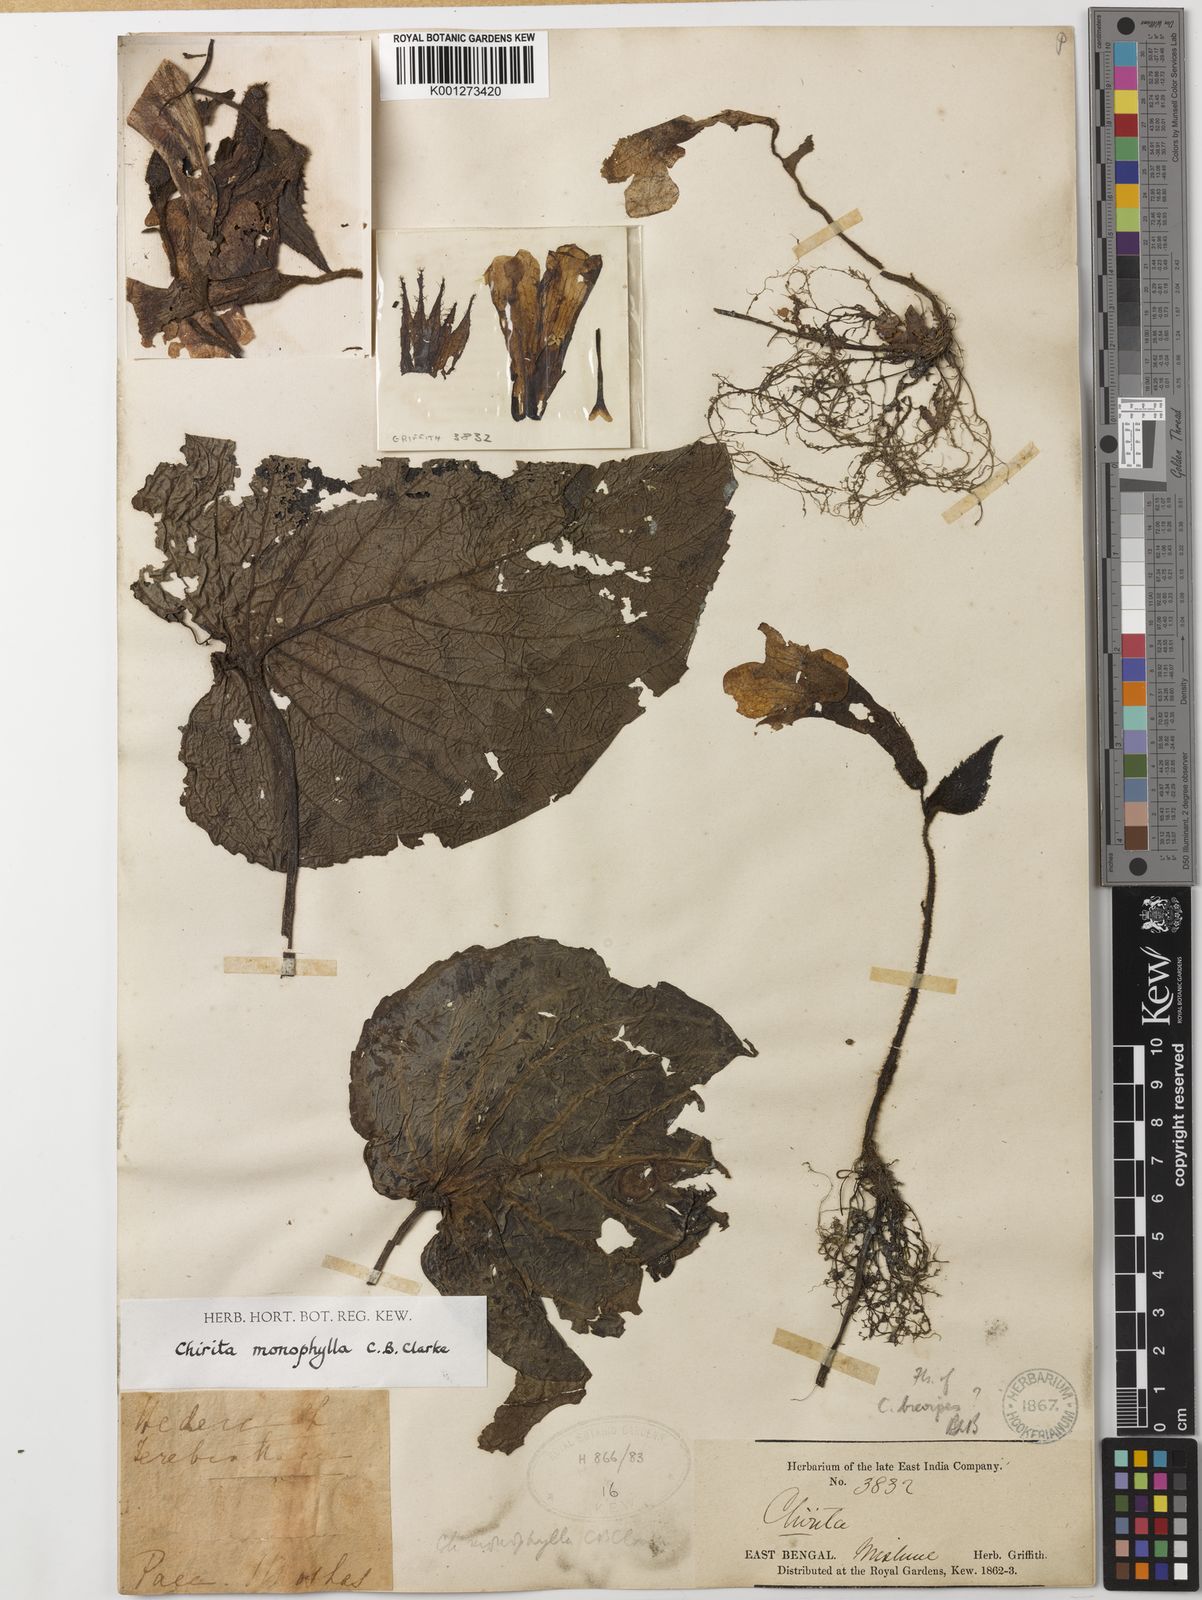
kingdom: Plantae
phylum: Tracheophyta
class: Magnoliopsida
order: Lamiales
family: Gesneriaceae
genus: Henckelia
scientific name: Henckelia monophylla
